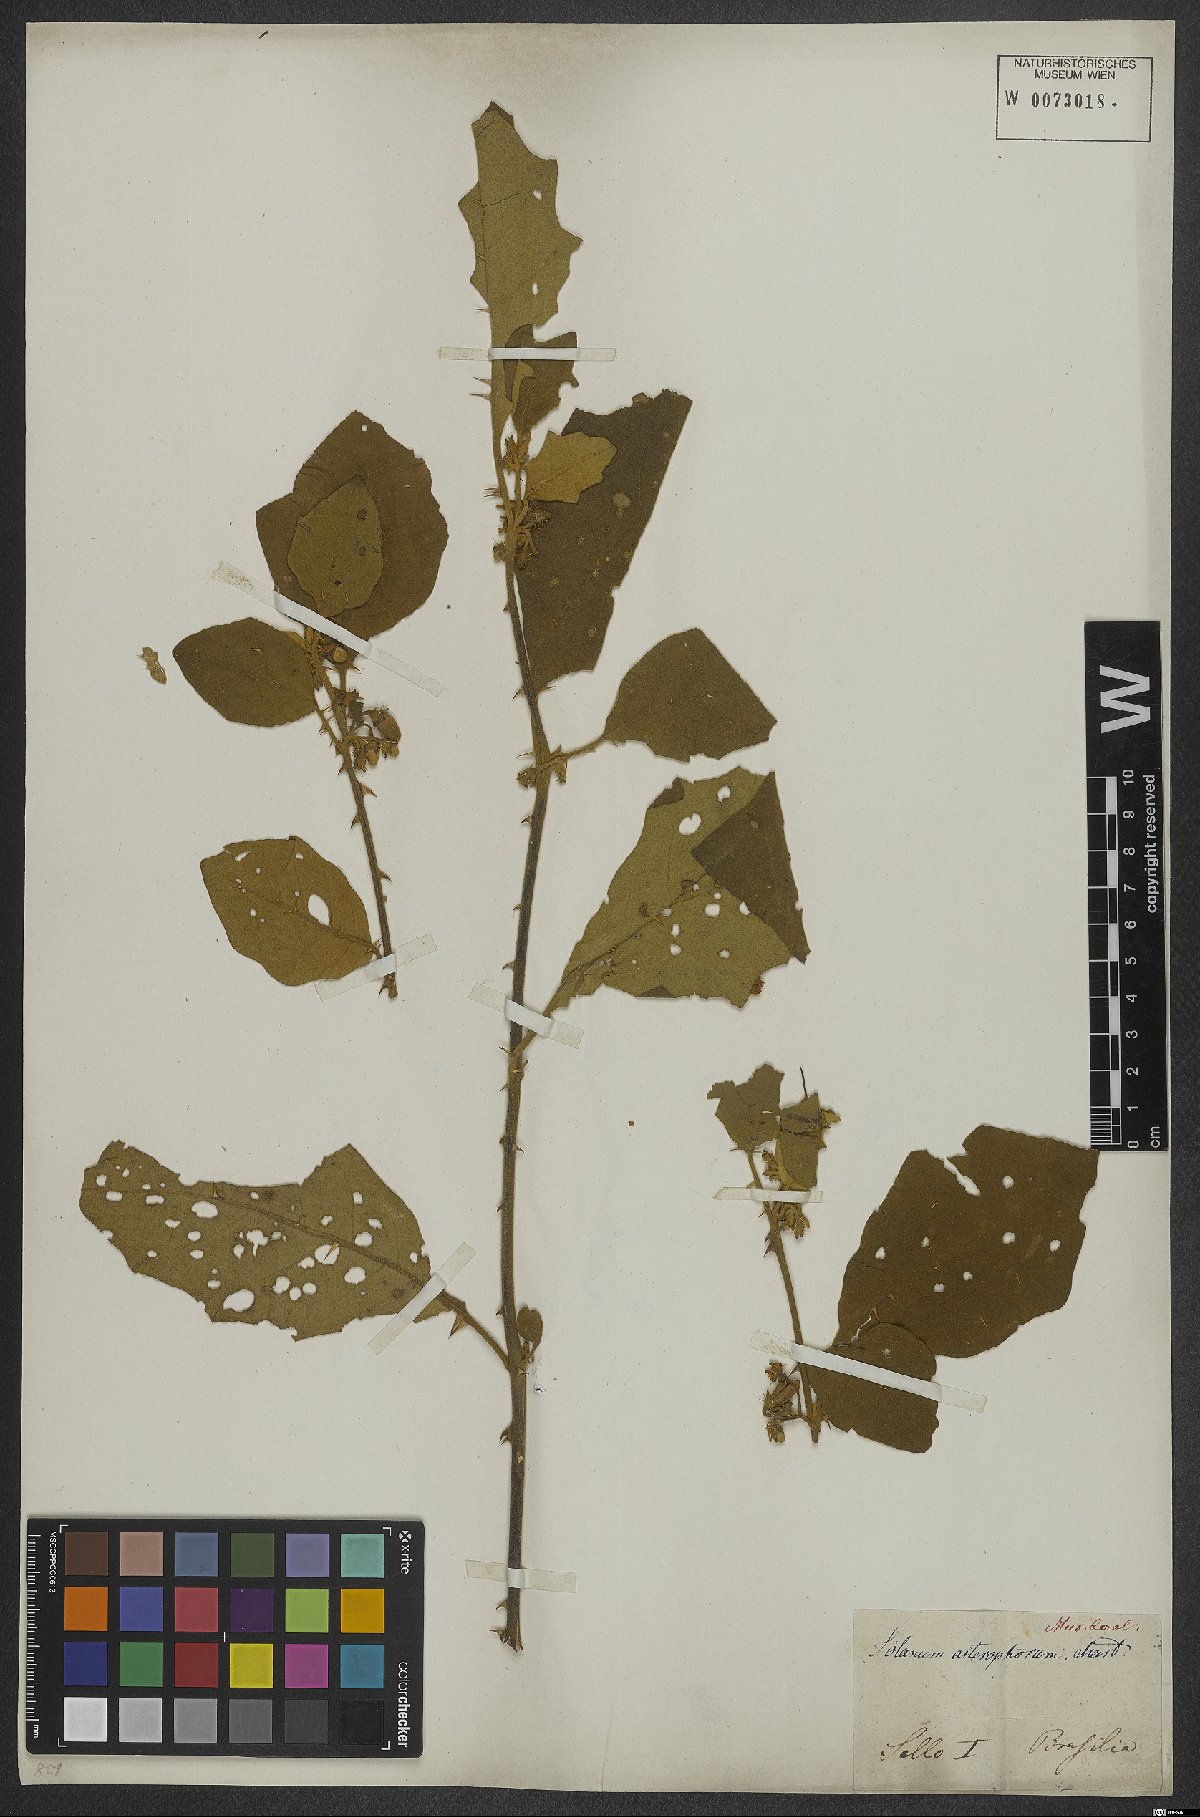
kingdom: Plantae
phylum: Tracheophyta
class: Magnoliopsida
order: Solanales
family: Solanaceae
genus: Solanum
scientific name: Solanum asterophorum
